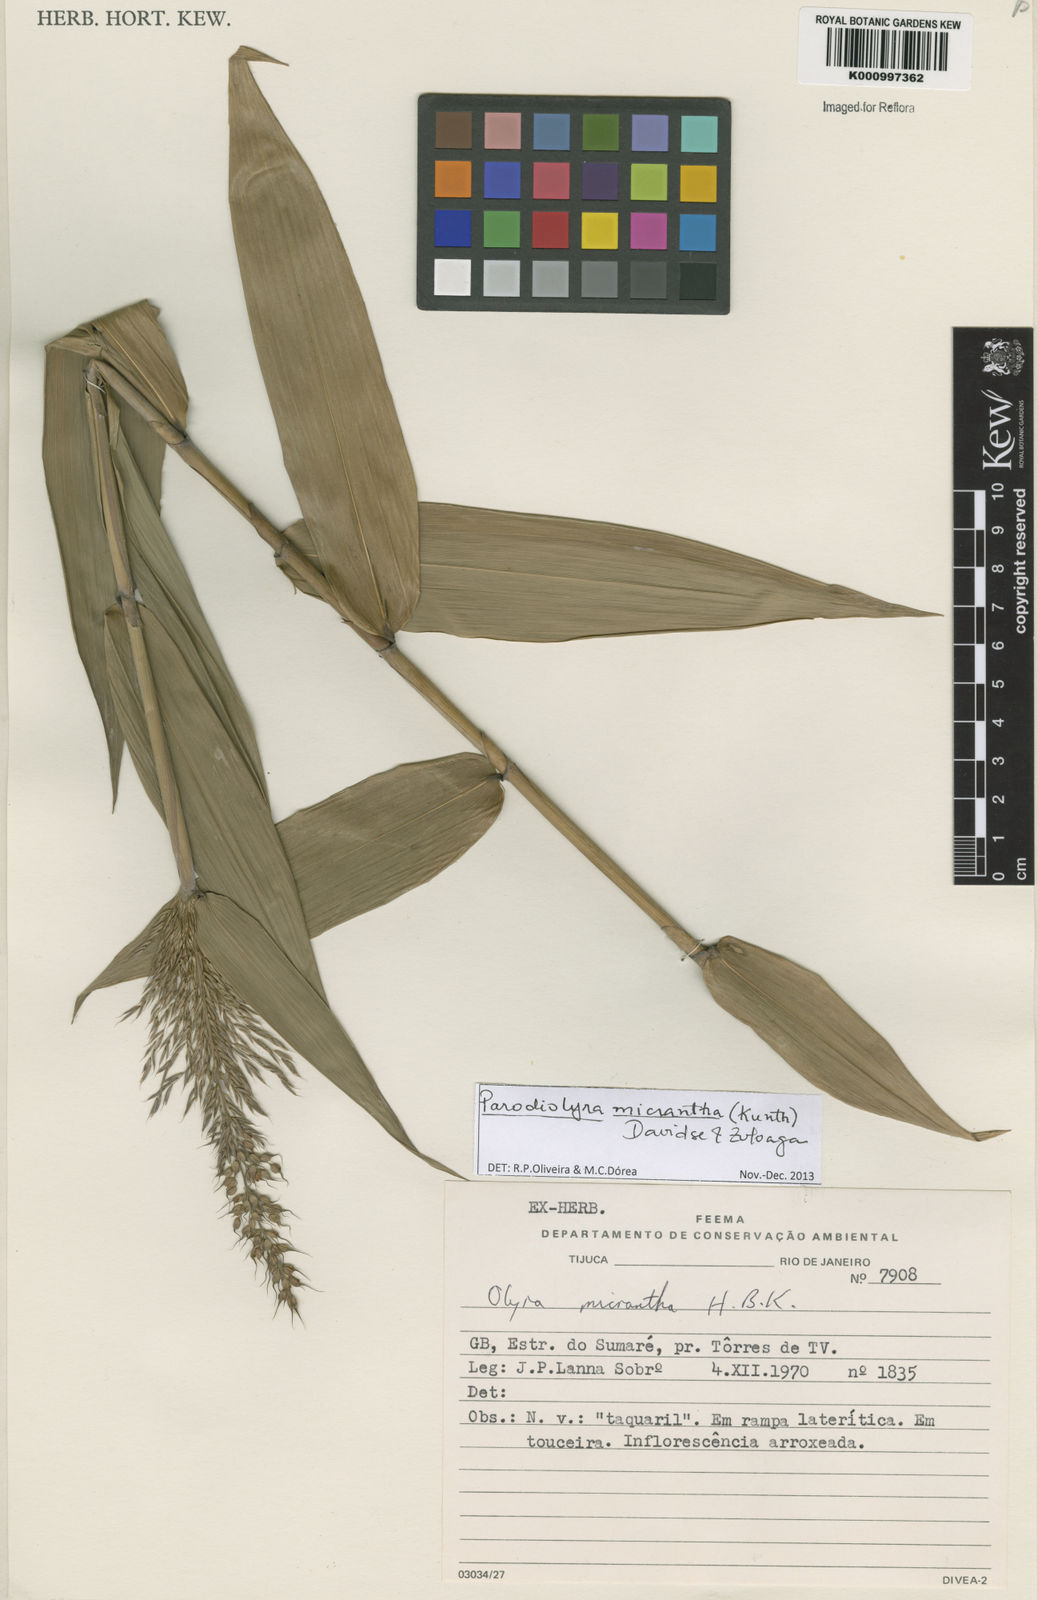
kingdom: Plantae
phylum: Tracheophyta
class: Liliopsida
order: Poales
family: Poaceae
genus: Taquara
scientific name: Taquara micrantha
